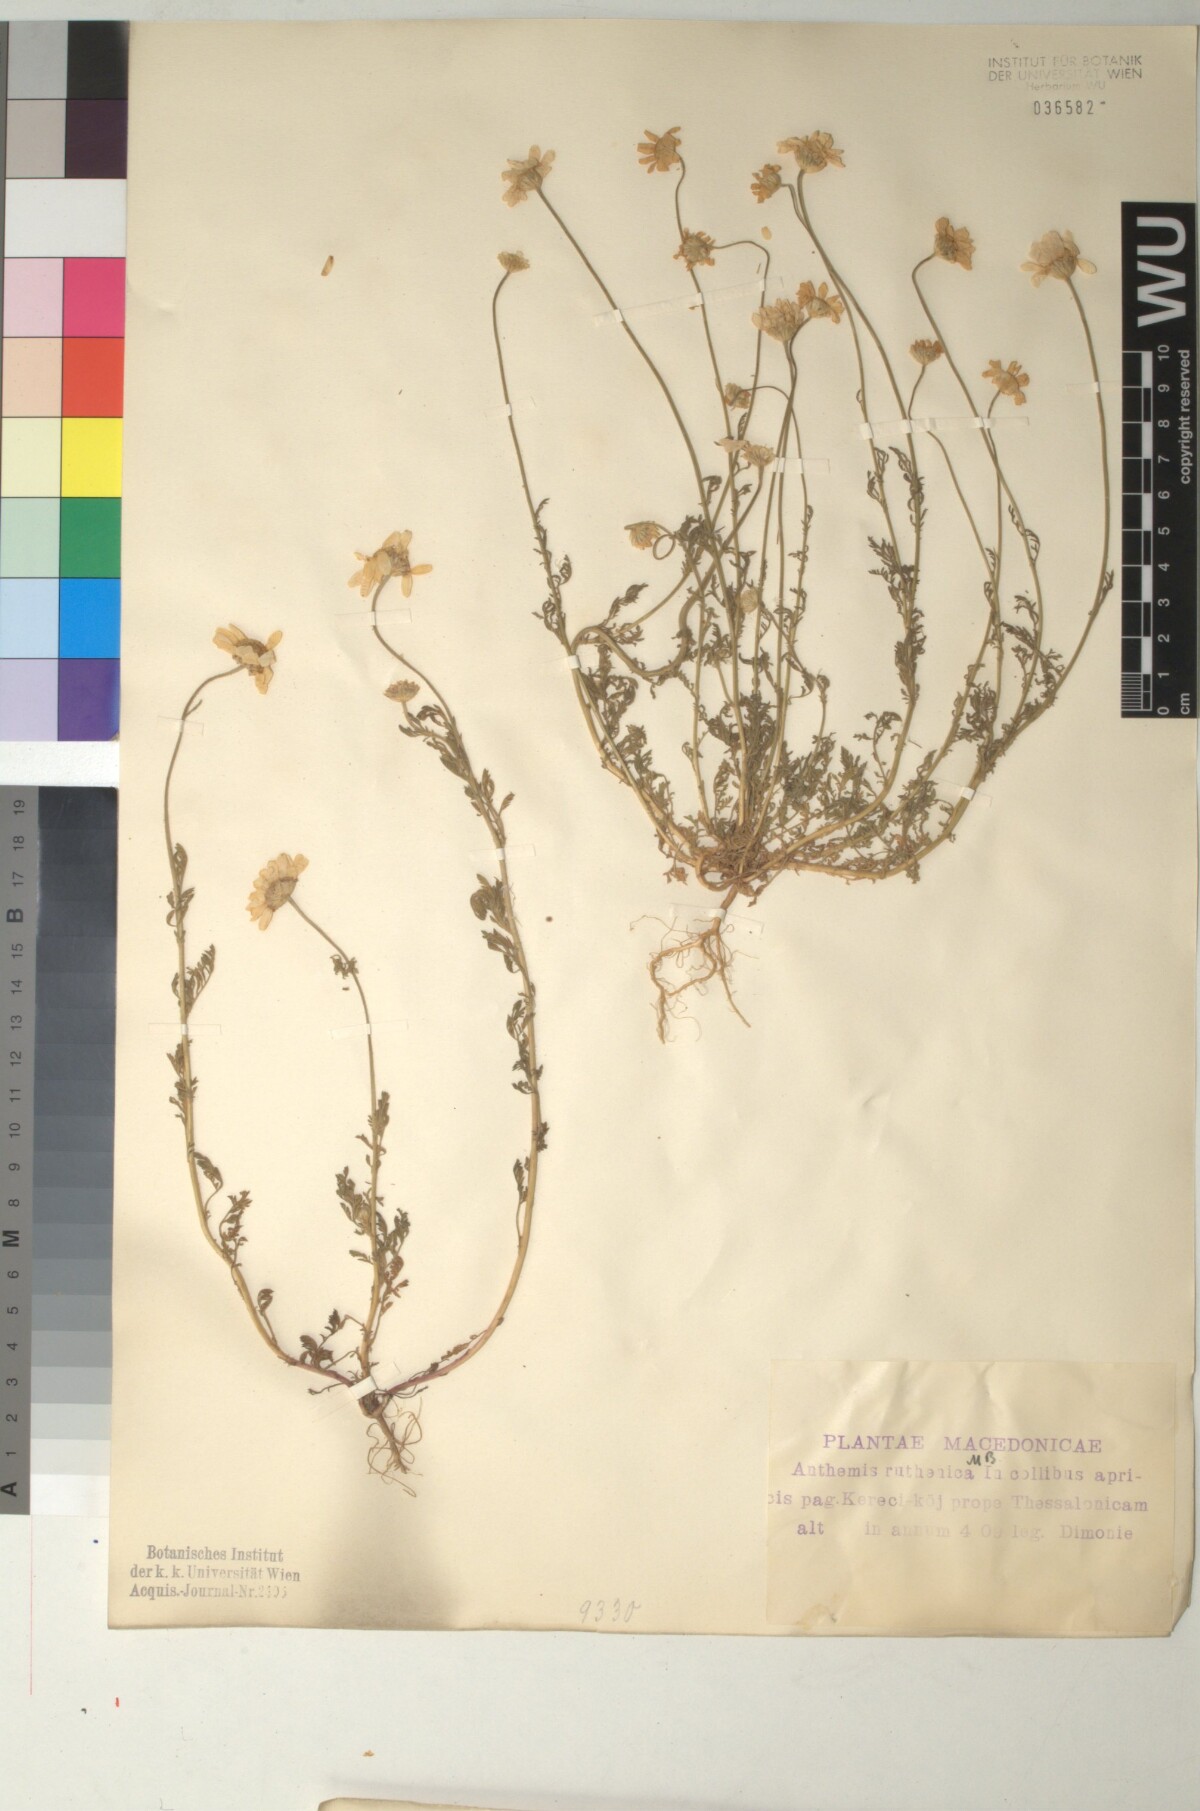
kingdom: Plantae
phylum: Tracheophyta
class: Magnoliopsida
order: Asterales
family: Asteraceae
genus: Anthemis
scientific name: Anthemis ruthenica
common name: Eastern chamomile
